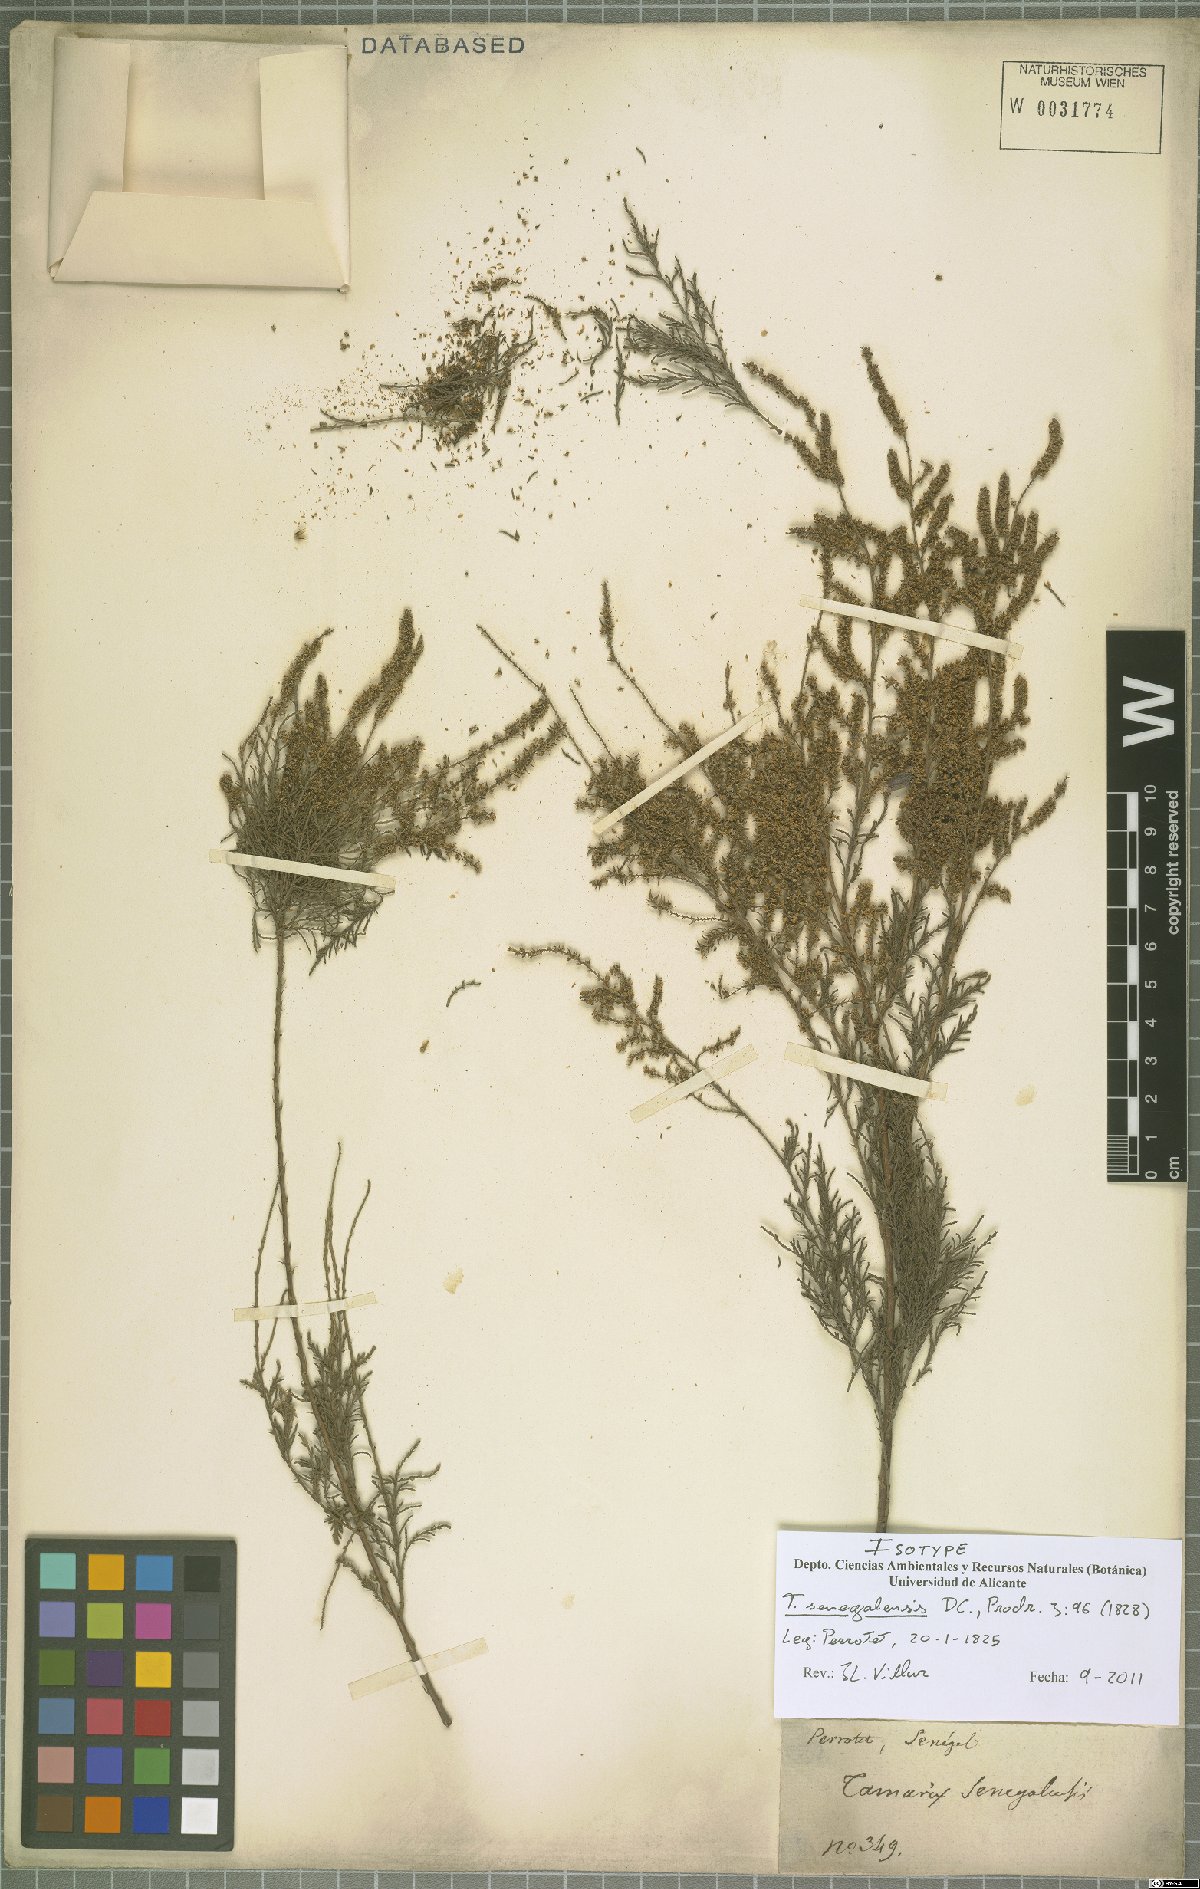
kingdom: Plantae
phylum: Tracheophyta
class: Magnoliopsida
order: Caryophyllales
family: Tamaricaceae
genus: Tamarix
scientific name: Tamarix senegalensis
